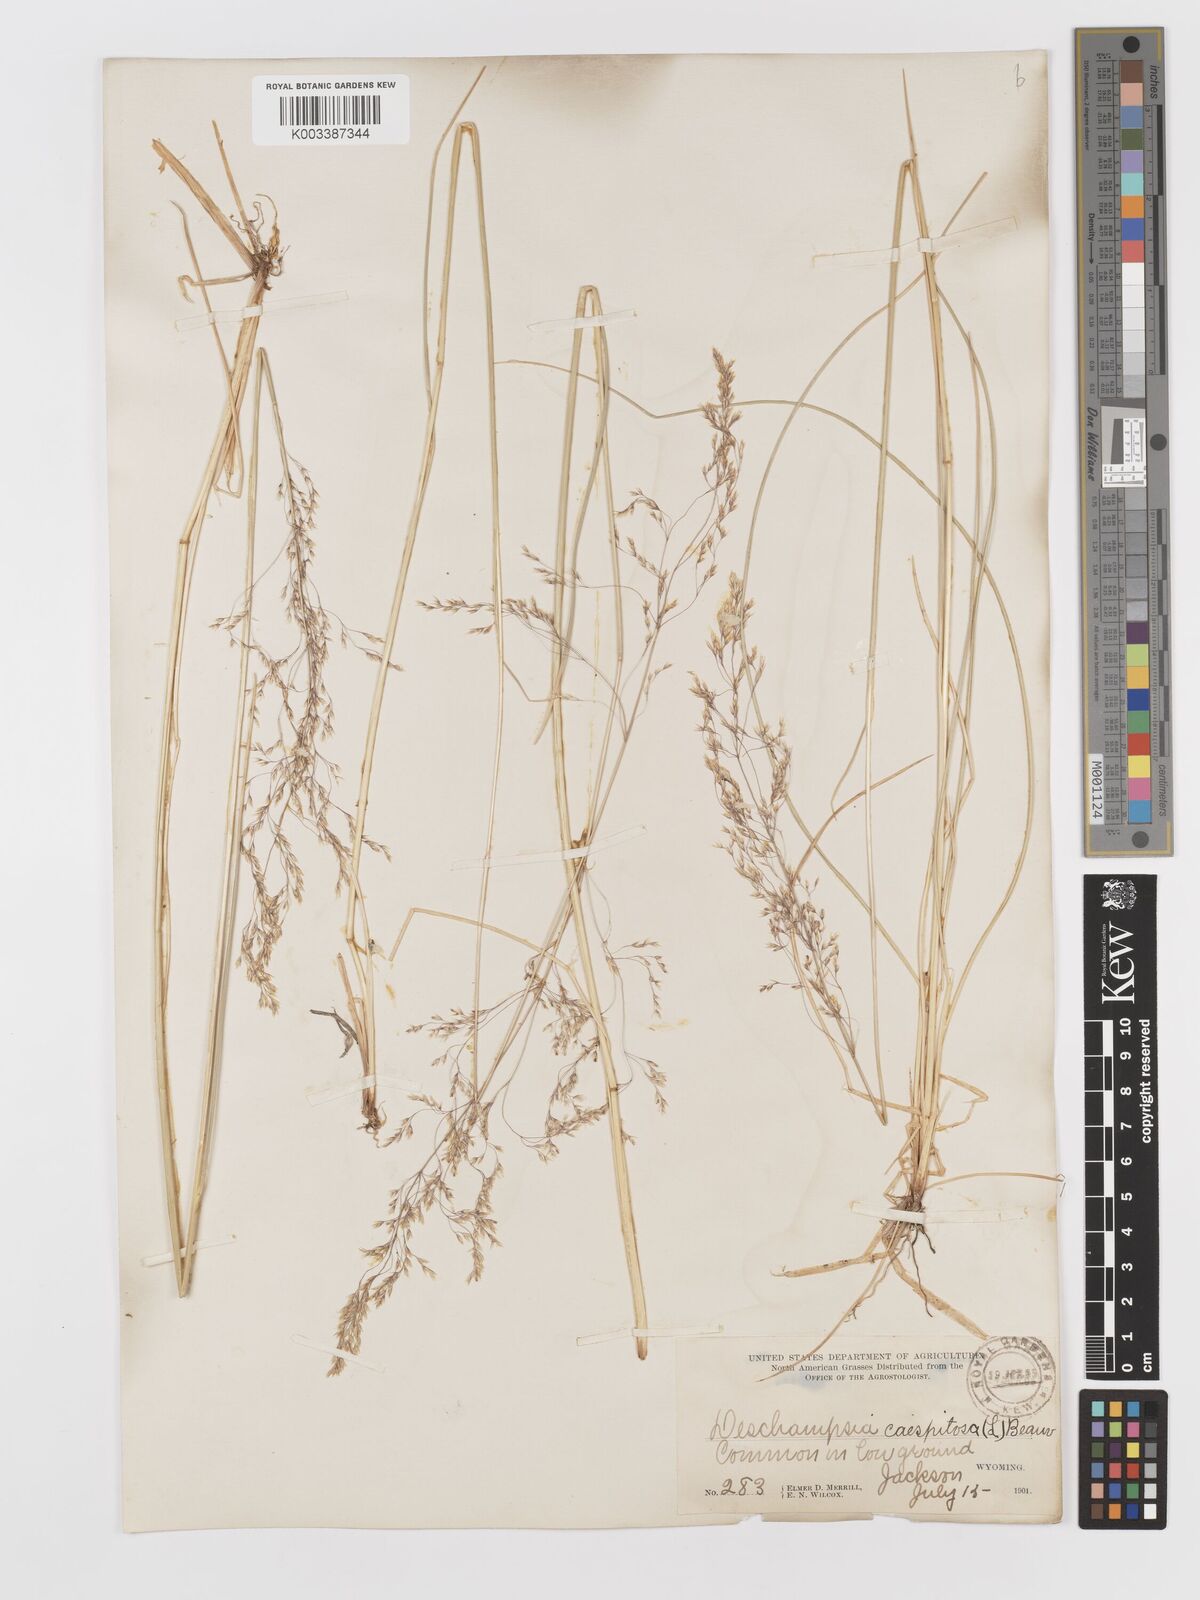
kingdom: Plantae
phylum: Tracheophyta
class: Liliopsida
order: Poales
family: Poaceae
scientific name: Poaceae
